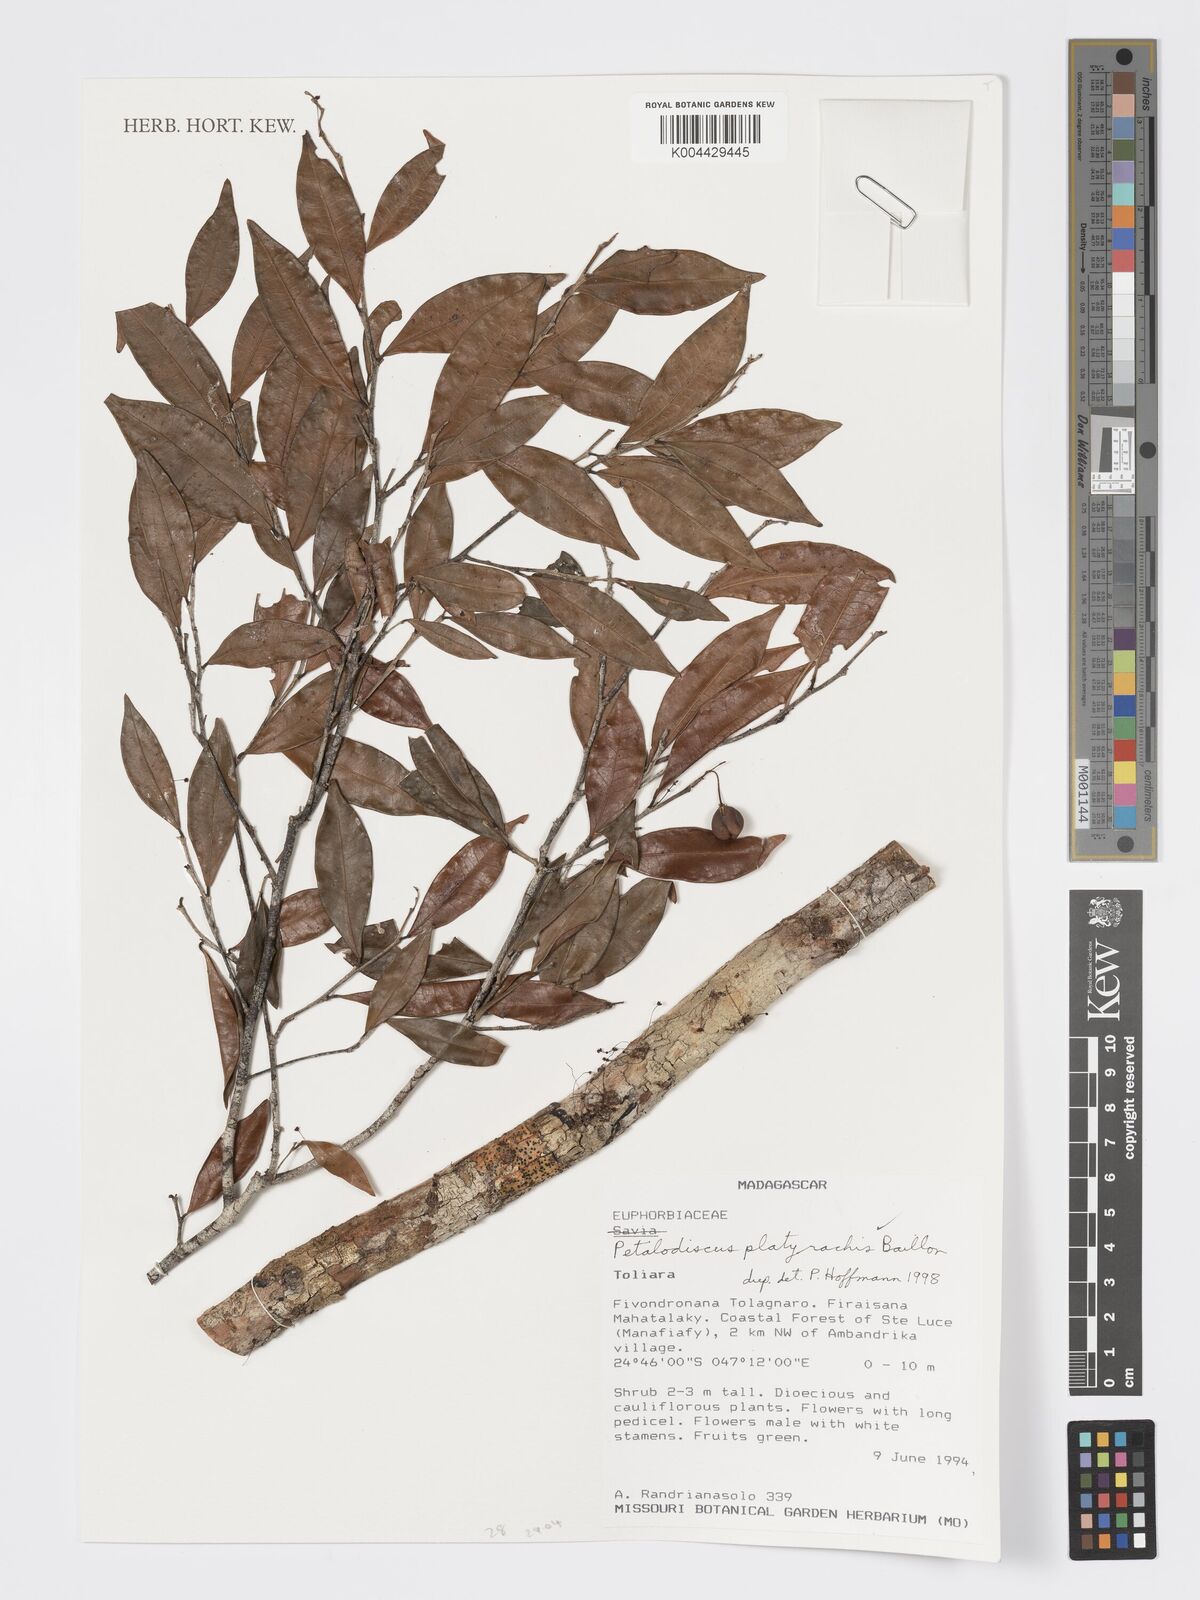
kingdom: Plantae
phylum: Tracheophyta
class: Magnoliopsida
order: Malpighiales
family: Phyllanthaceae
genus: Wielandia
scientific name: Wielandia platyrachis
